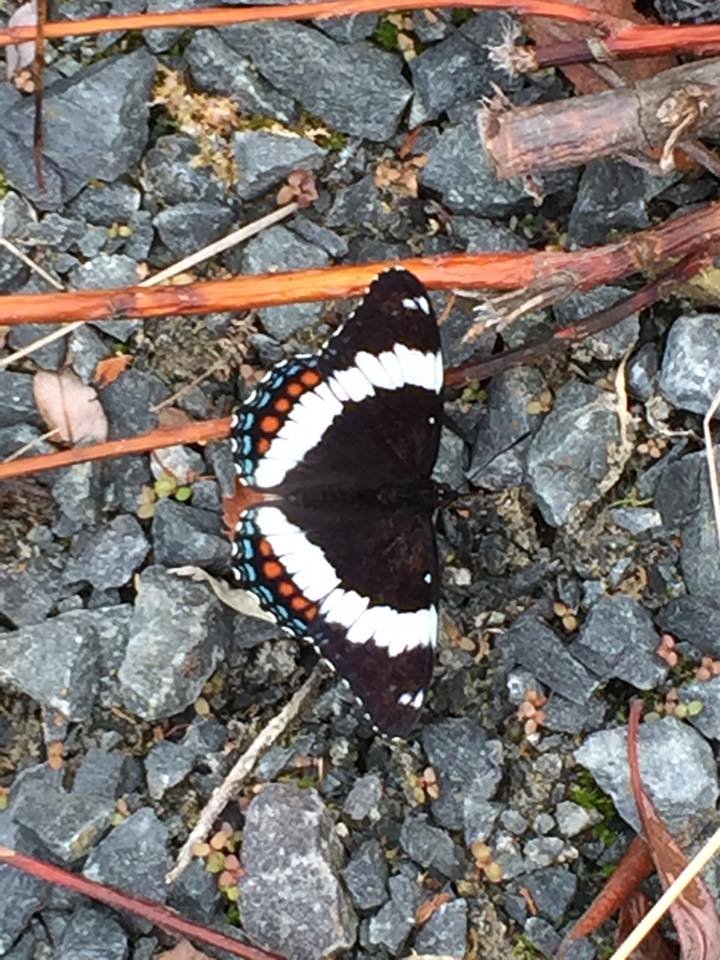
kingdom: Animalia
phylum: Arthropoda
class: Insecta
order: Lepidoptera
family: Nymphalidae
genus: Limenitis
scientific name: Limenitis arthemis
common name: Red-spotted Admiral
